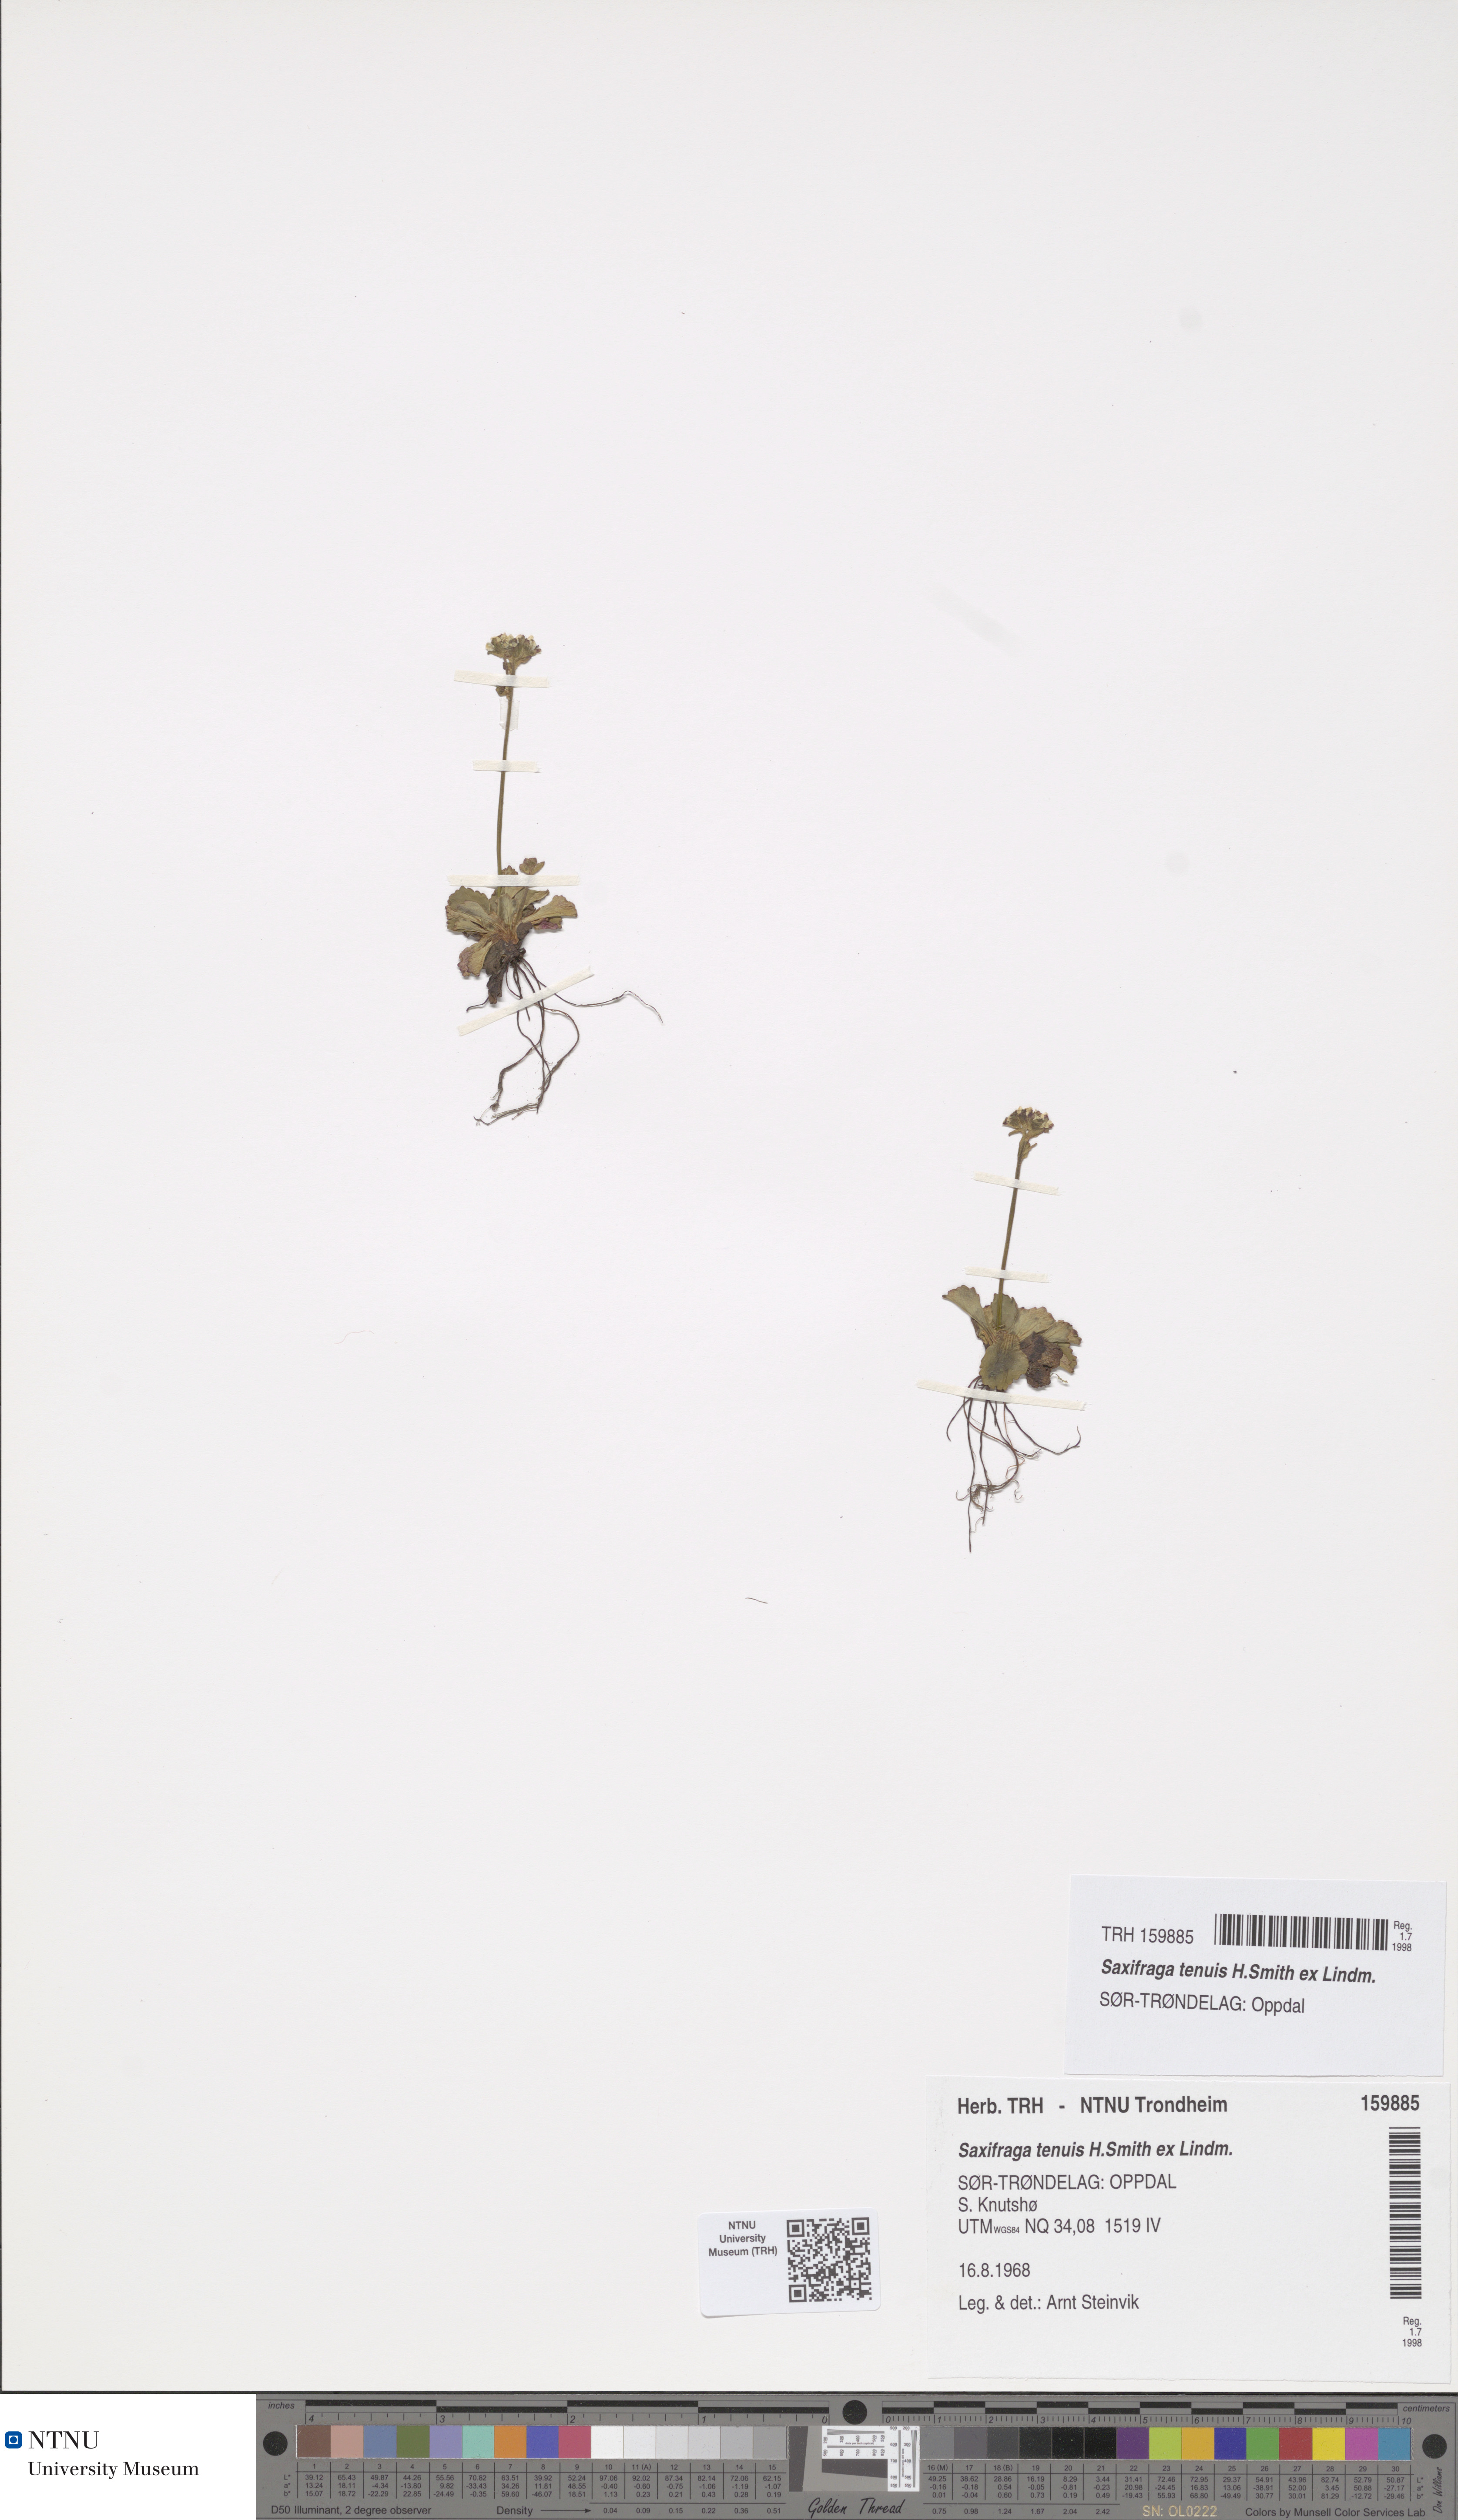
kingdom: Plantae
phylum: Tracheophyta
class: Magnoliopsida
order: Saxifragales
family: Saxifragaceae
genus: Micranthes
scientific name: Micranthes tenuis
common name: Ottertail pass saxifrage
